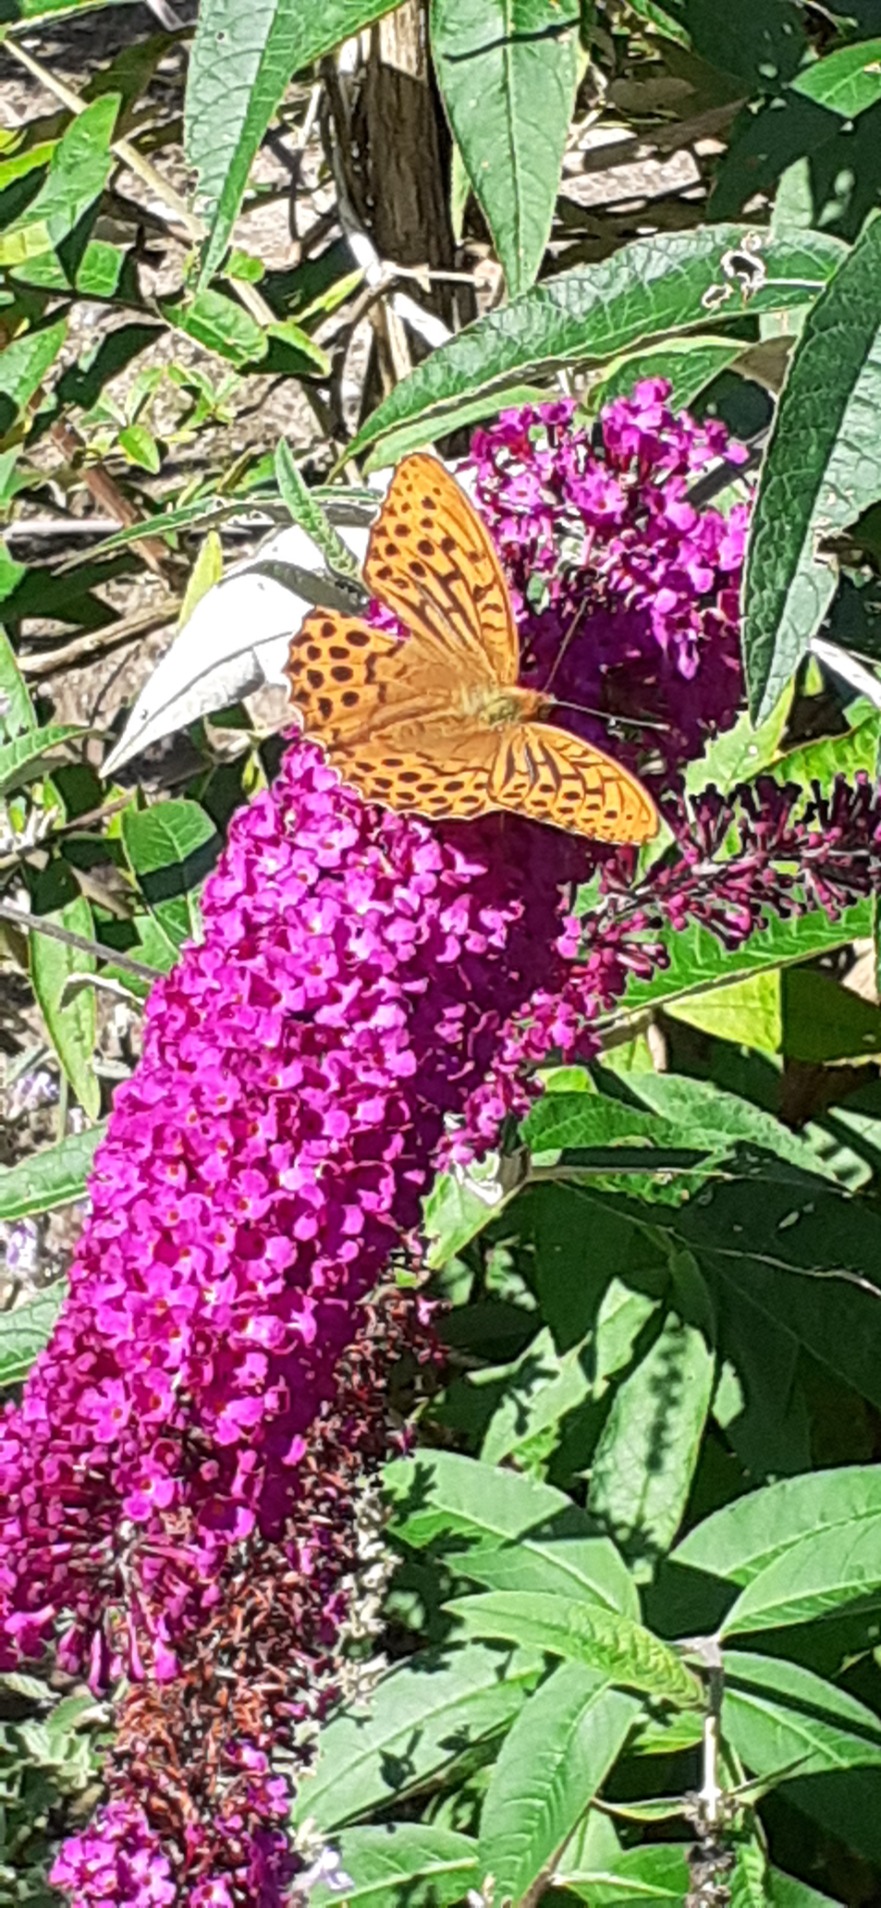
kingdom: Animalia
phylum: Arthropoda
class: Insecta
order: Lepidoptera
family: Nymphalidae
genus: Argynnis
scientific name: Argynnis paphia
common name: Kejserkåbe
